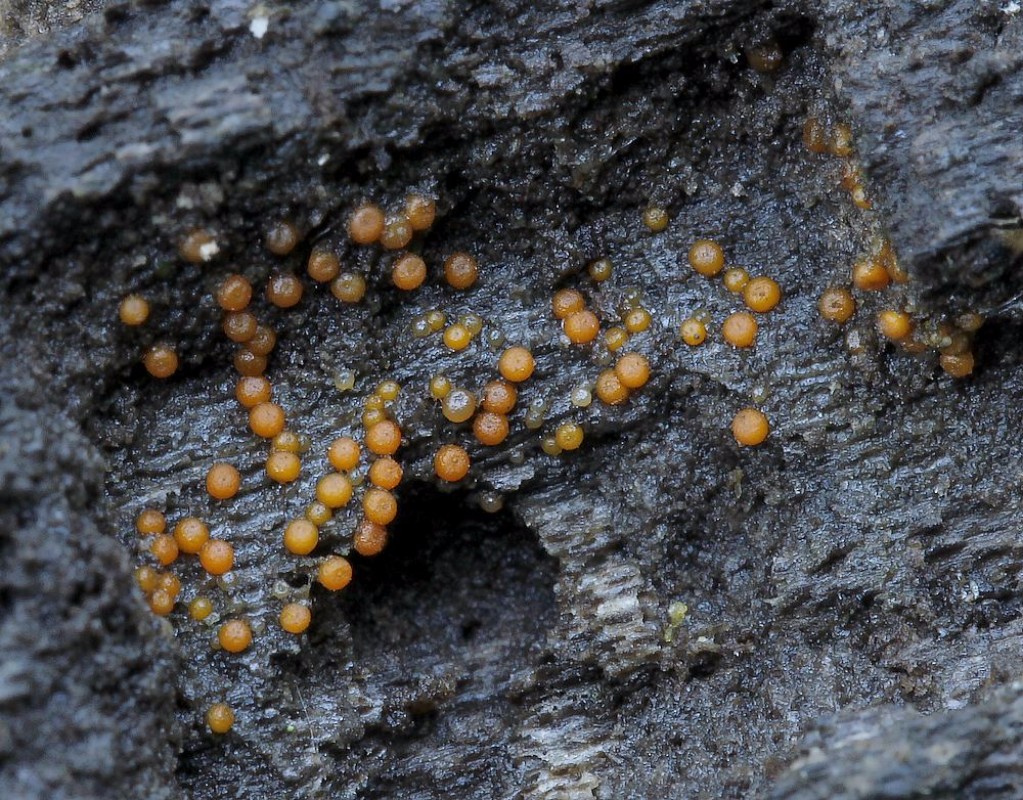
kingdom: Fungi
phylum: Ascomycota
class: Sordariomycetes
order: Hypocreales
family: Nectriaceae
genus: Hydropisphaera
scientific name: Hydropisphaera
